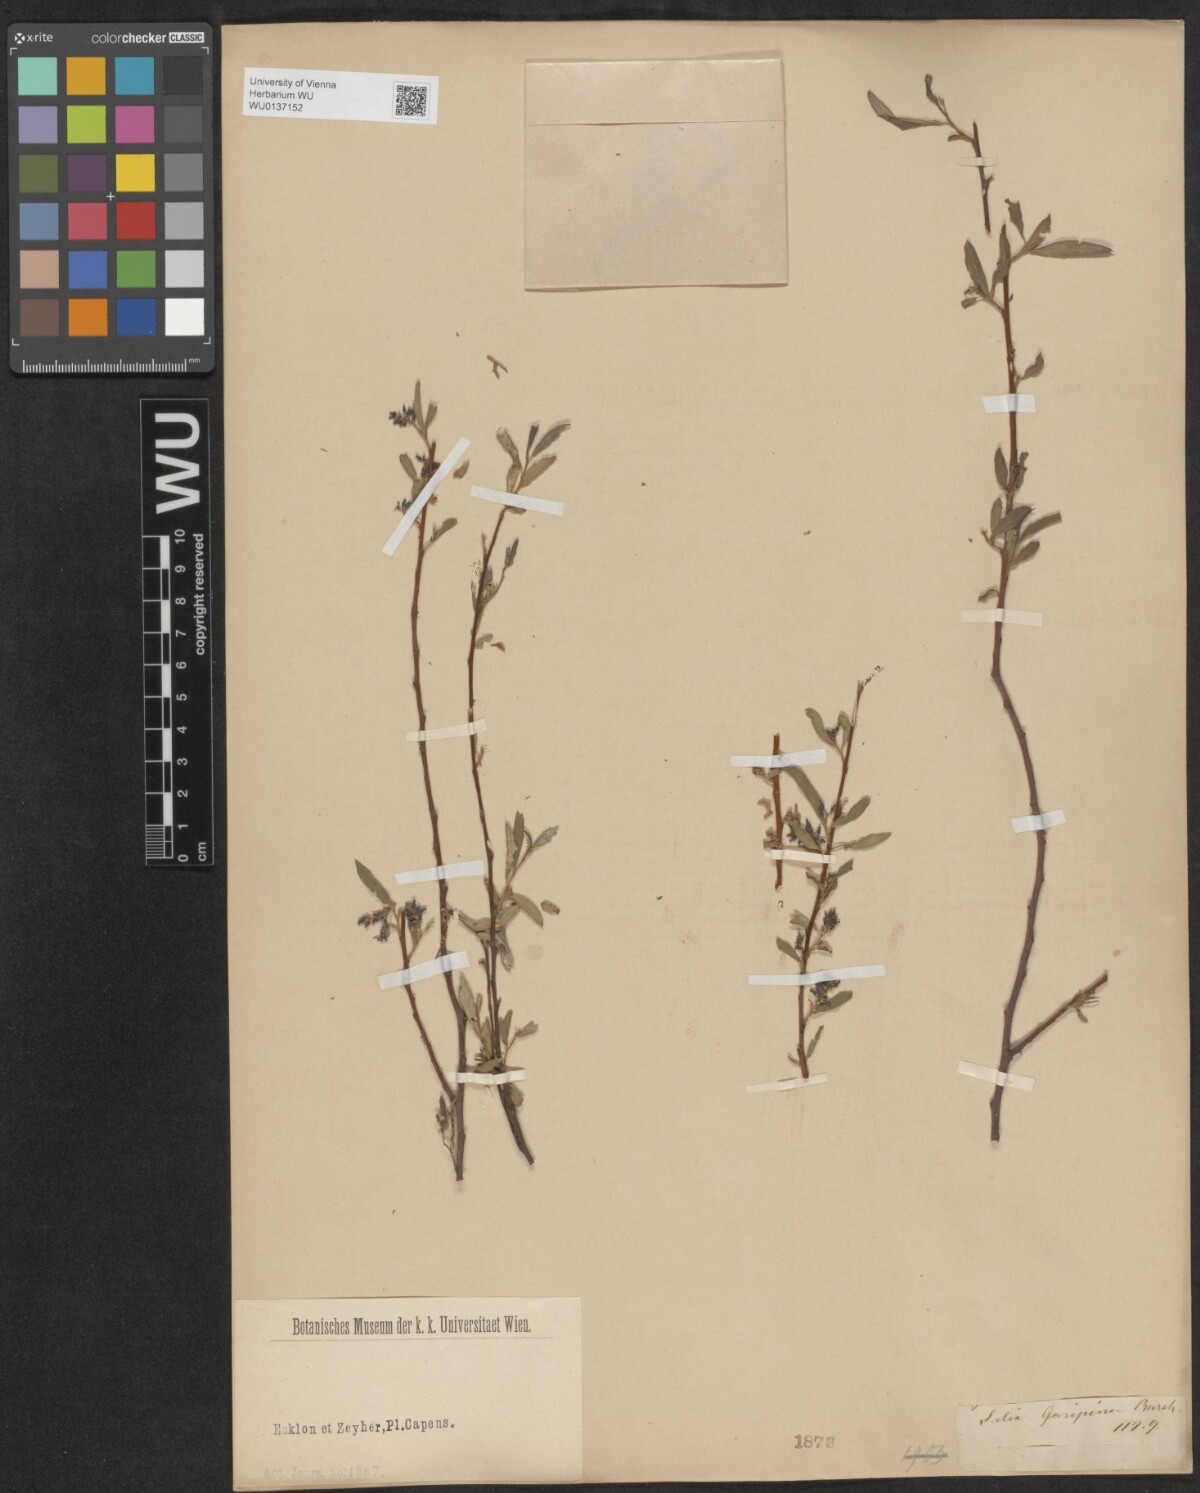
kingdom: Plantae
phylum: Tracheophyta
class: Magnoliopsida
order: Malpighiales
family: Salicaceae
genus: Salix
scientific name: Salix mucronata
